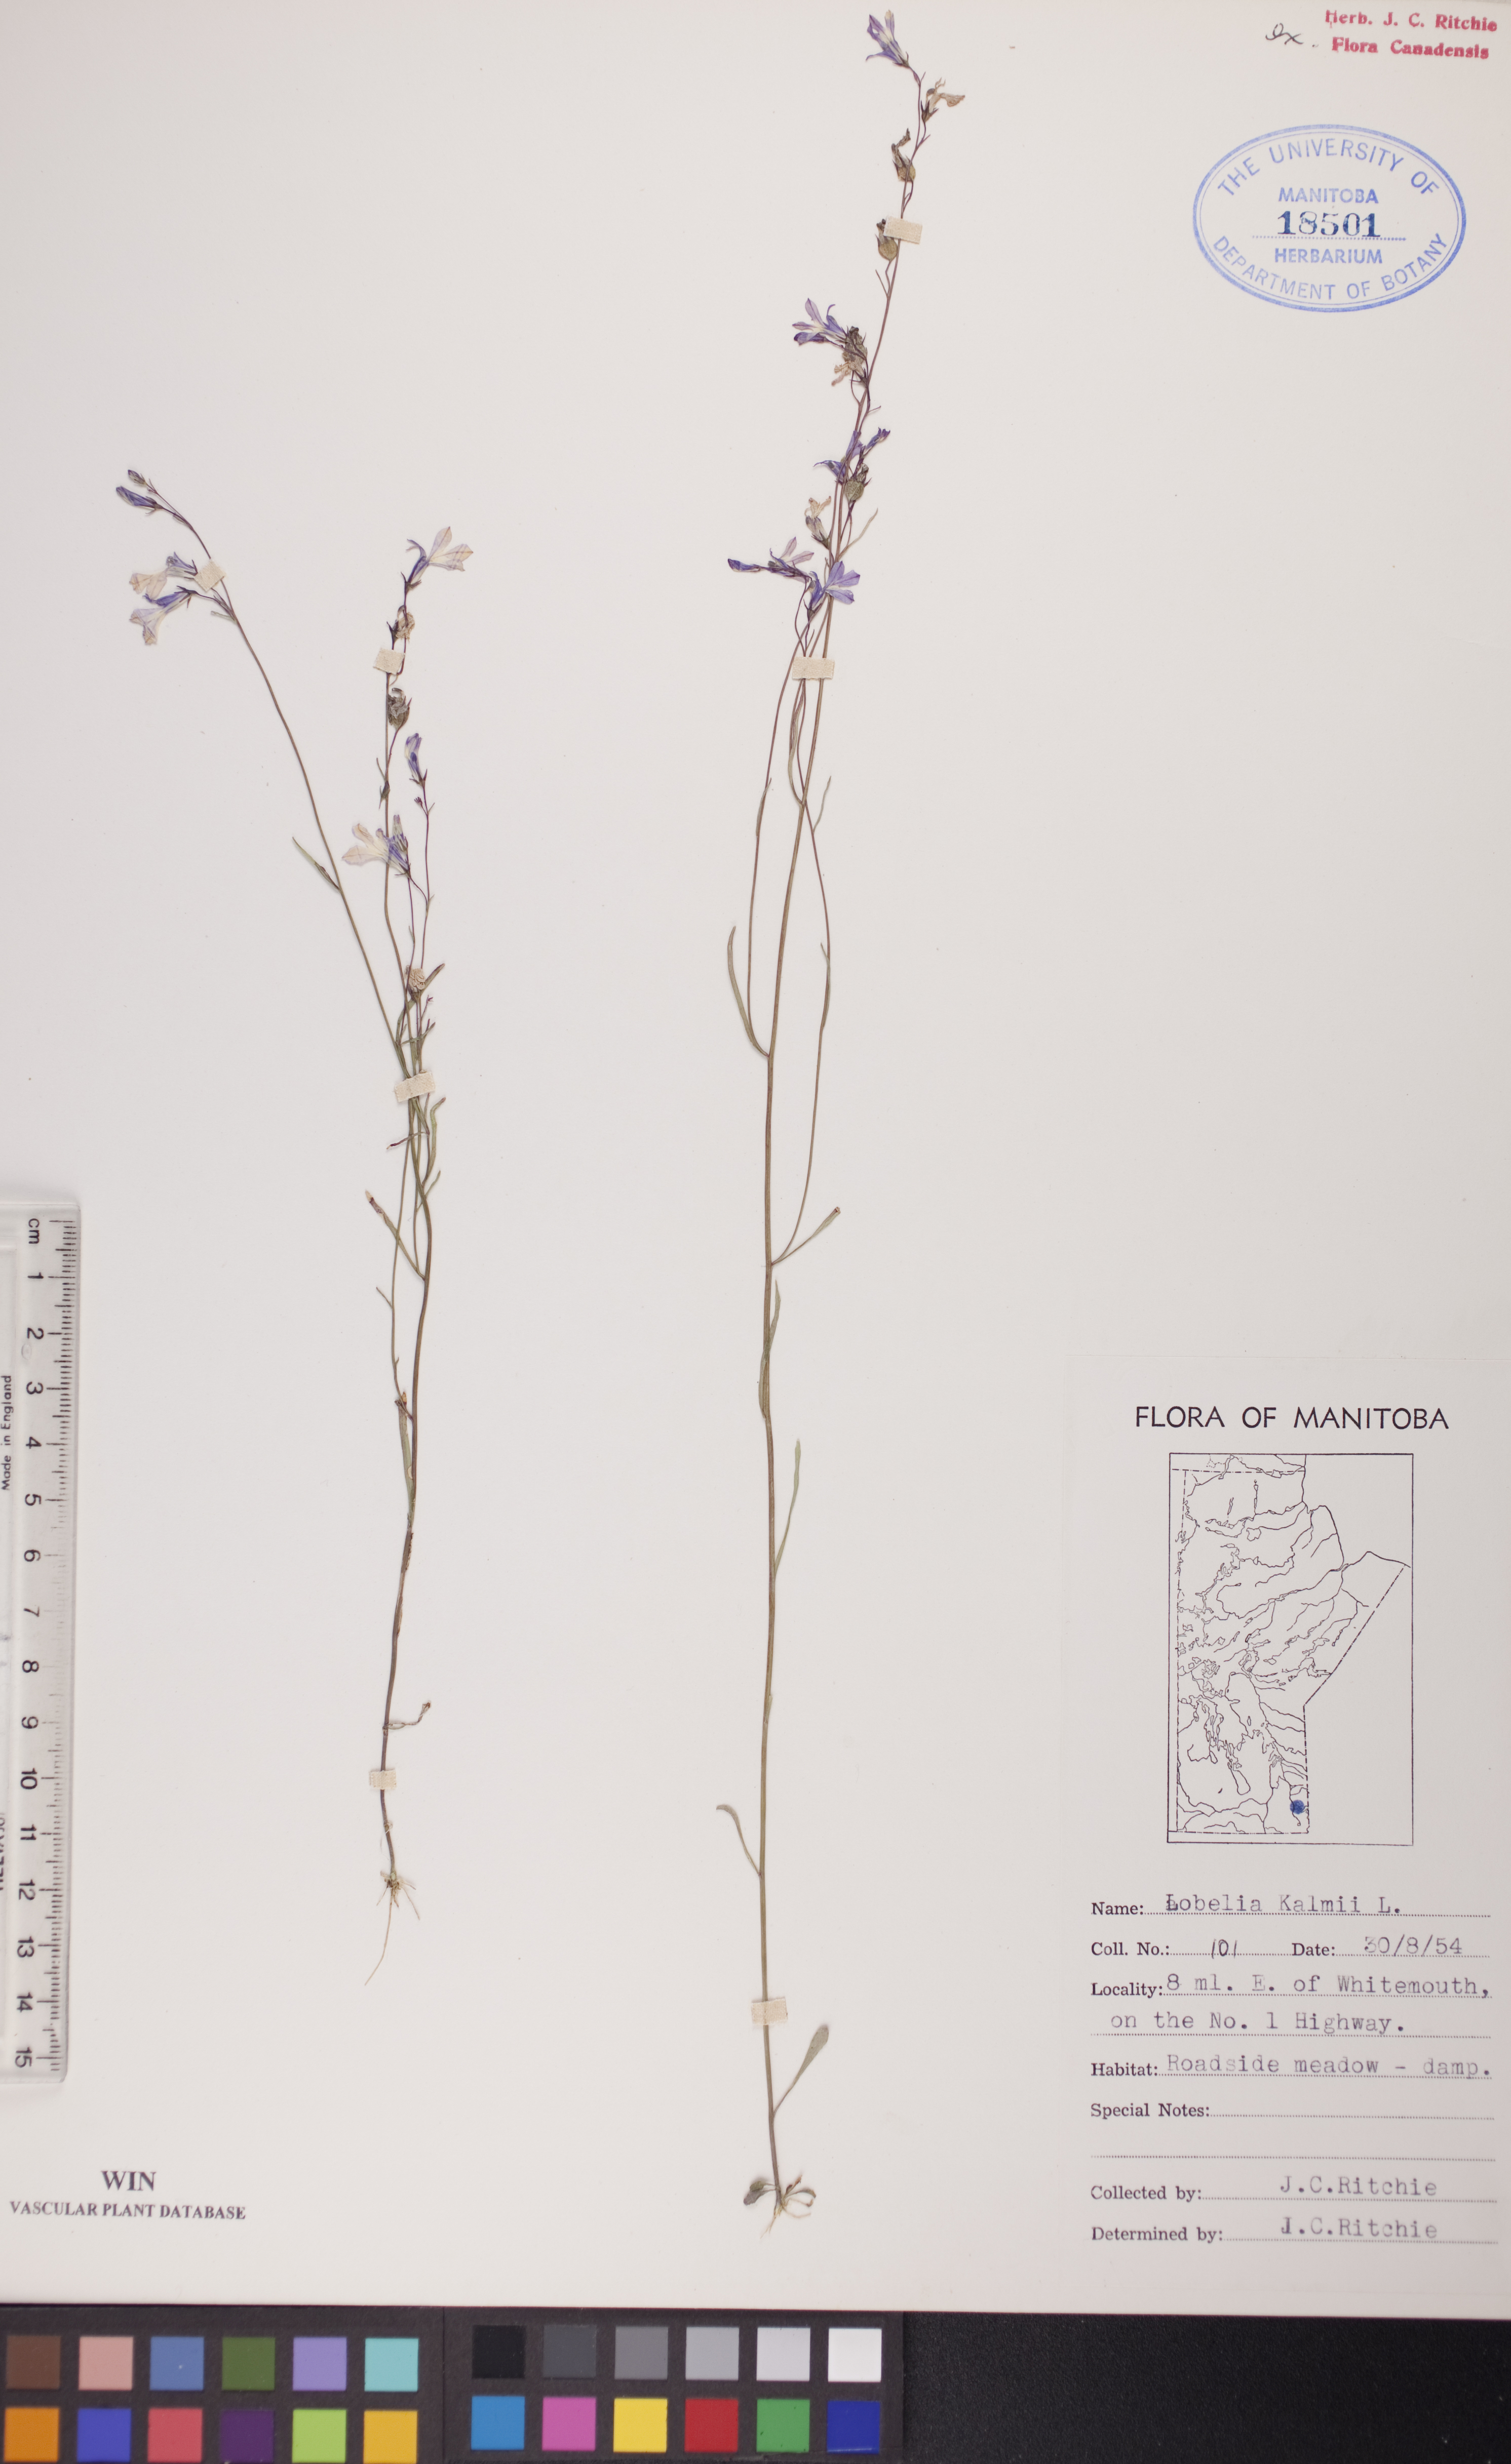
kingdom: Plantae
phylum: Tracheophyta
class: Magnoliopsida
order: Asterales
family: Campanulaceae
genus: Lobelia
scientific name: Lobelia kalmii
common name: Kalm's lobelia
